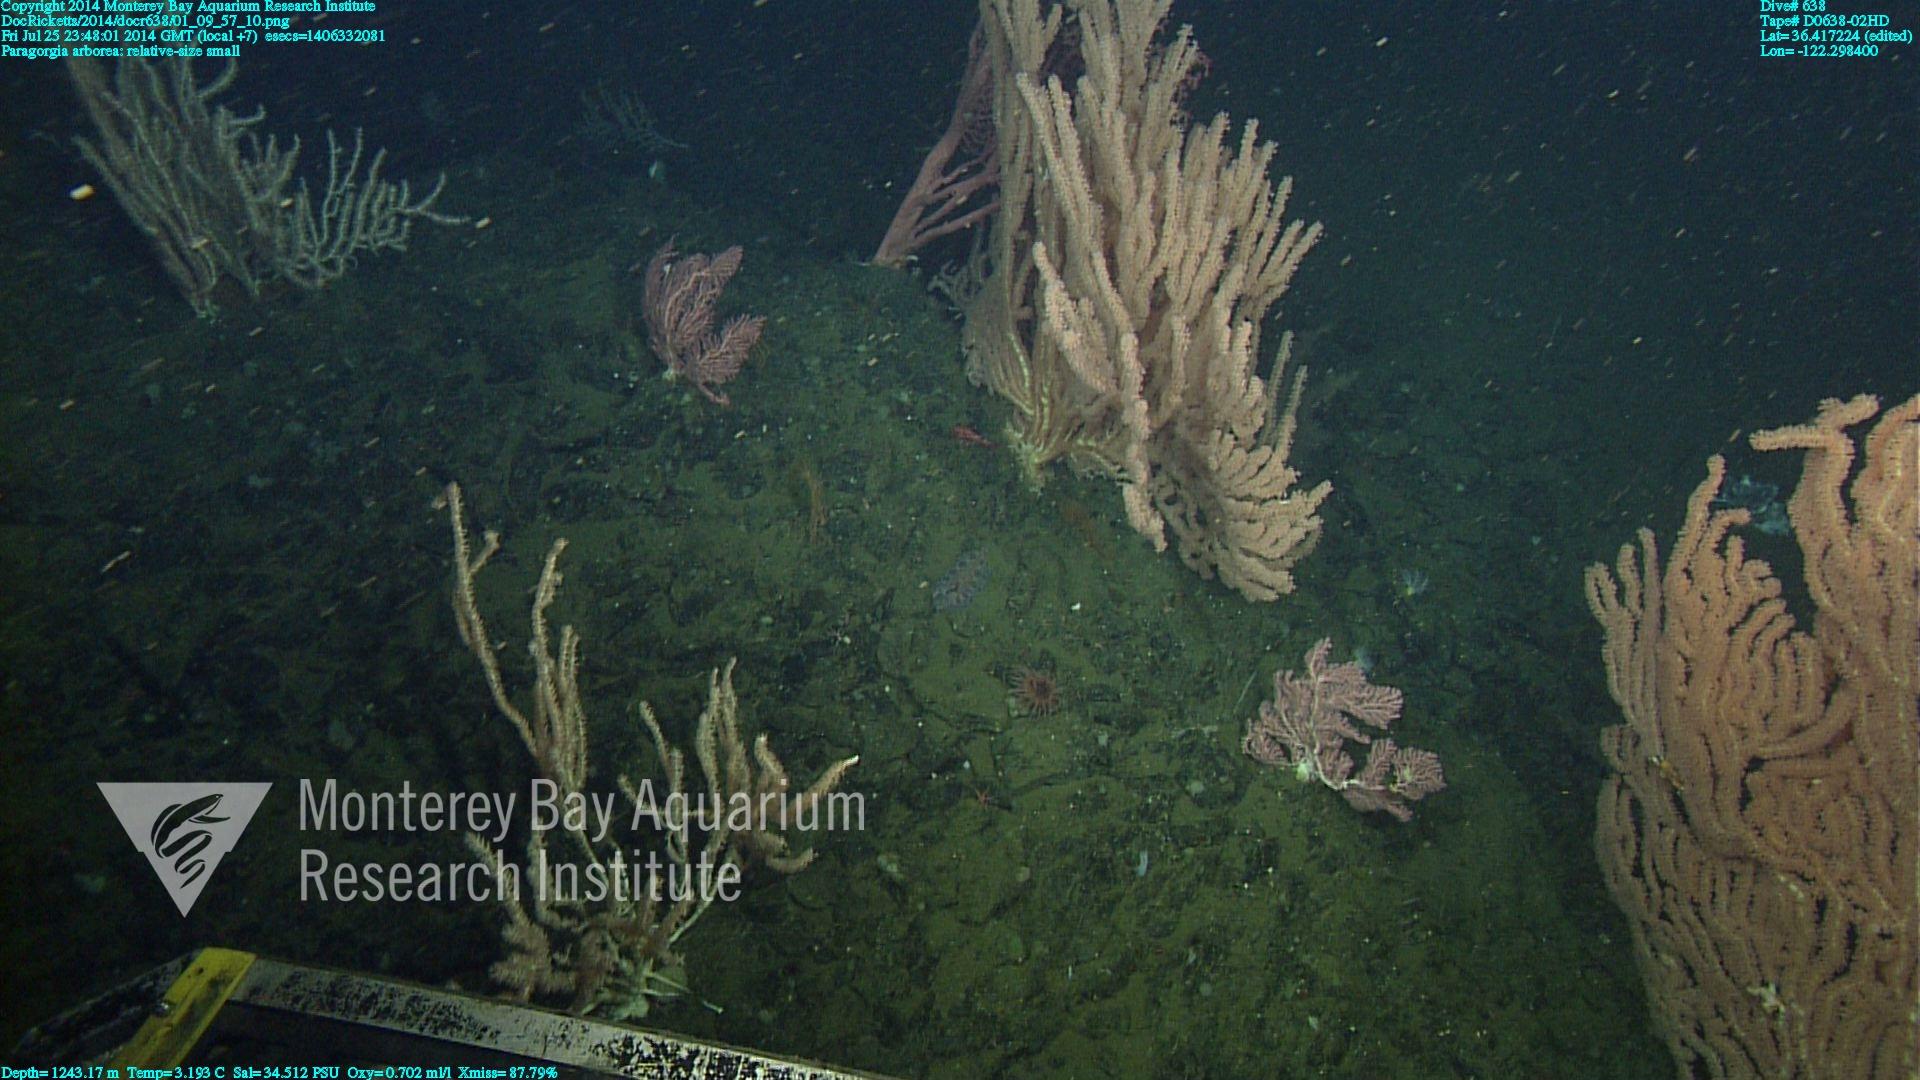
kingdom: Animalia
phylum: Cnidaria
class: Anthozoa
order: Scleralcyonacea
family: Coralliidae
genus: Paragorgia
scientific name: Paragorgia arborea
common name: Bubble gum coral
